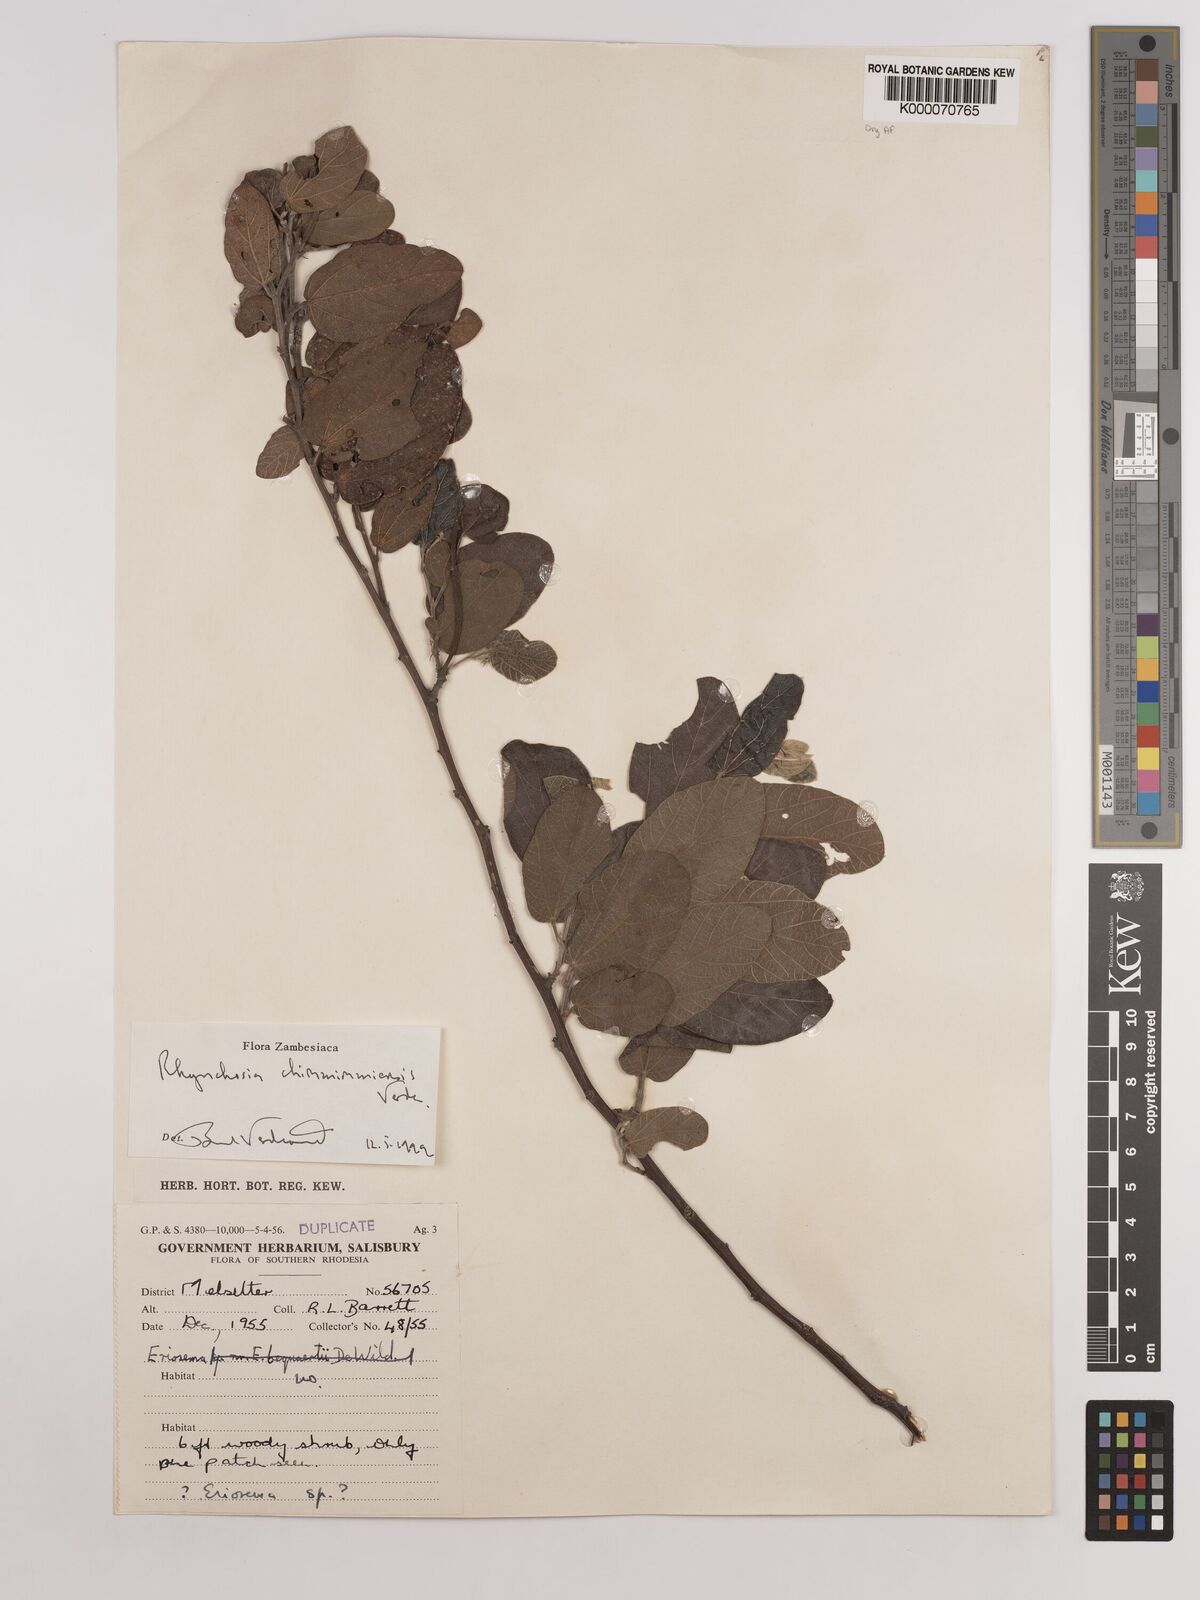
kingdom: Plantae
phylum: Tracheophyta
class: Magnoliopsida
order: Fabales
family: Fabaceae
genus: Rhynchosia
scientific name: Rhynchosia chimanimaniensis
